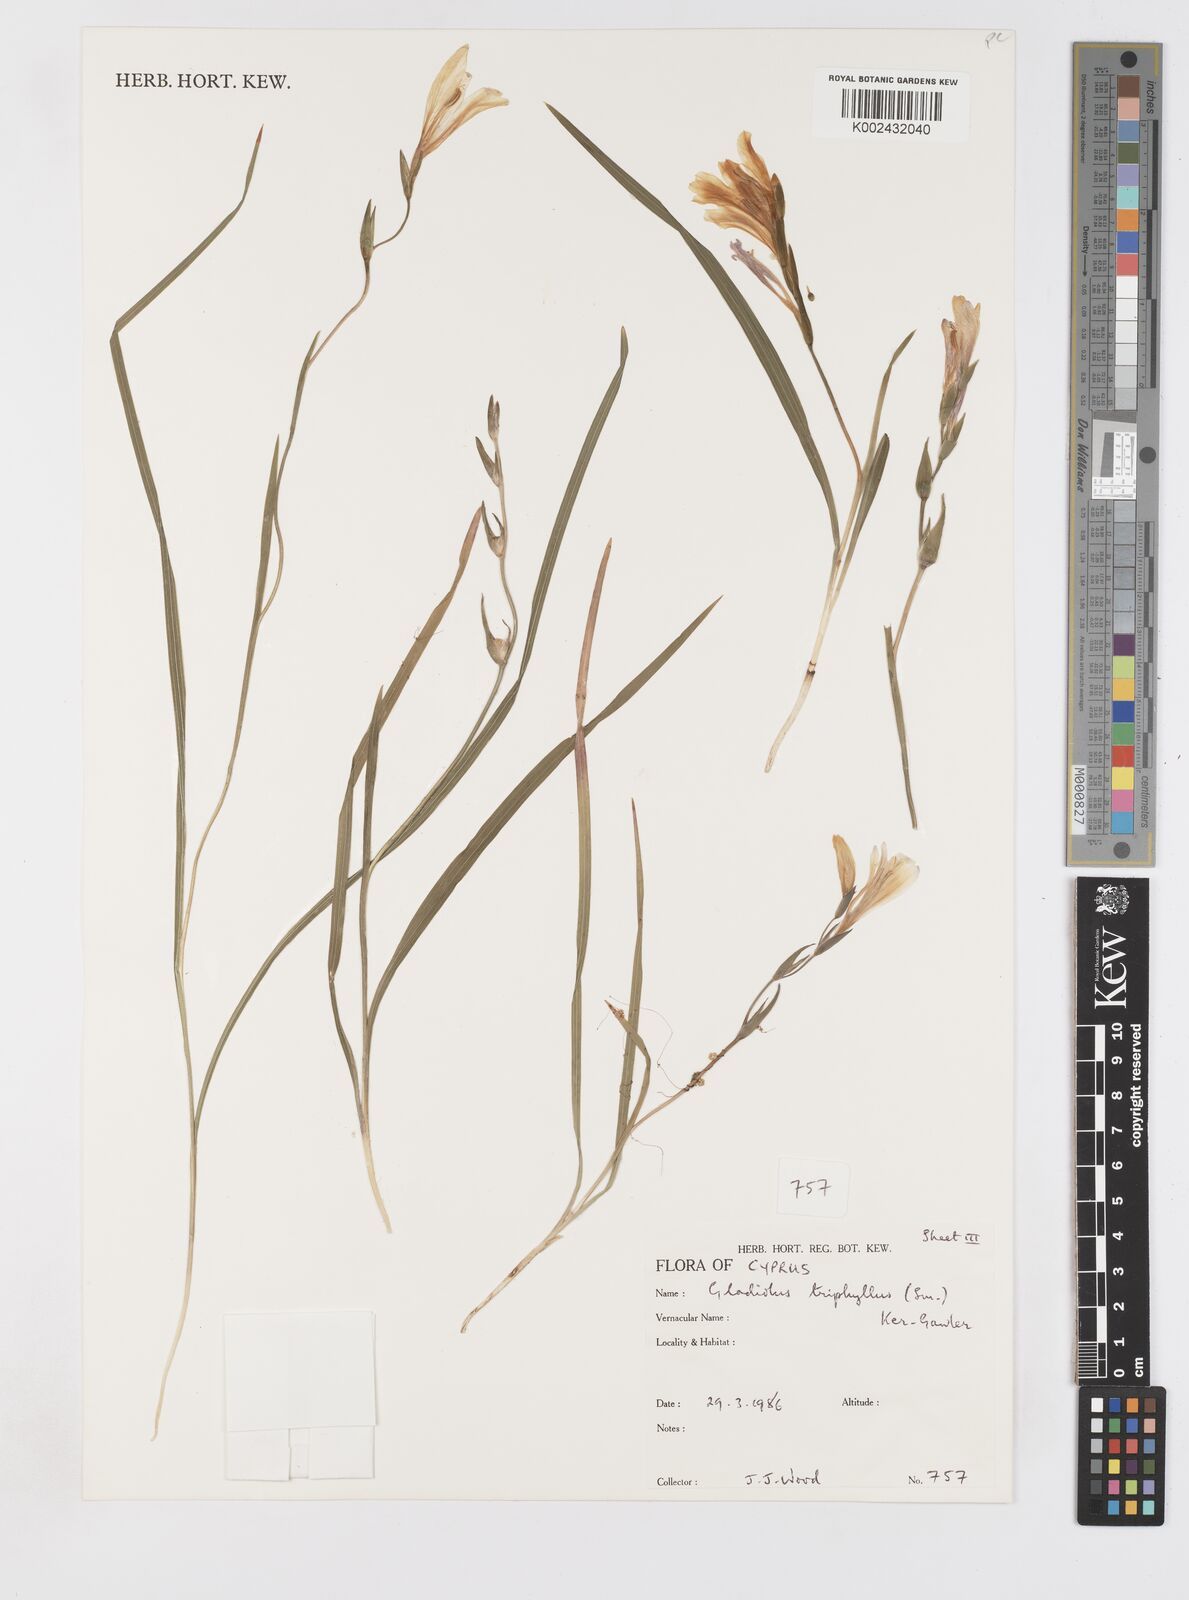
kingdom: Plantae
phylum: Tracheophyta
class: Liliopsida
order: Asparagales
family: Iridaceae
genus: Gladiolus
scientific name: Gladiolus triphyllus
